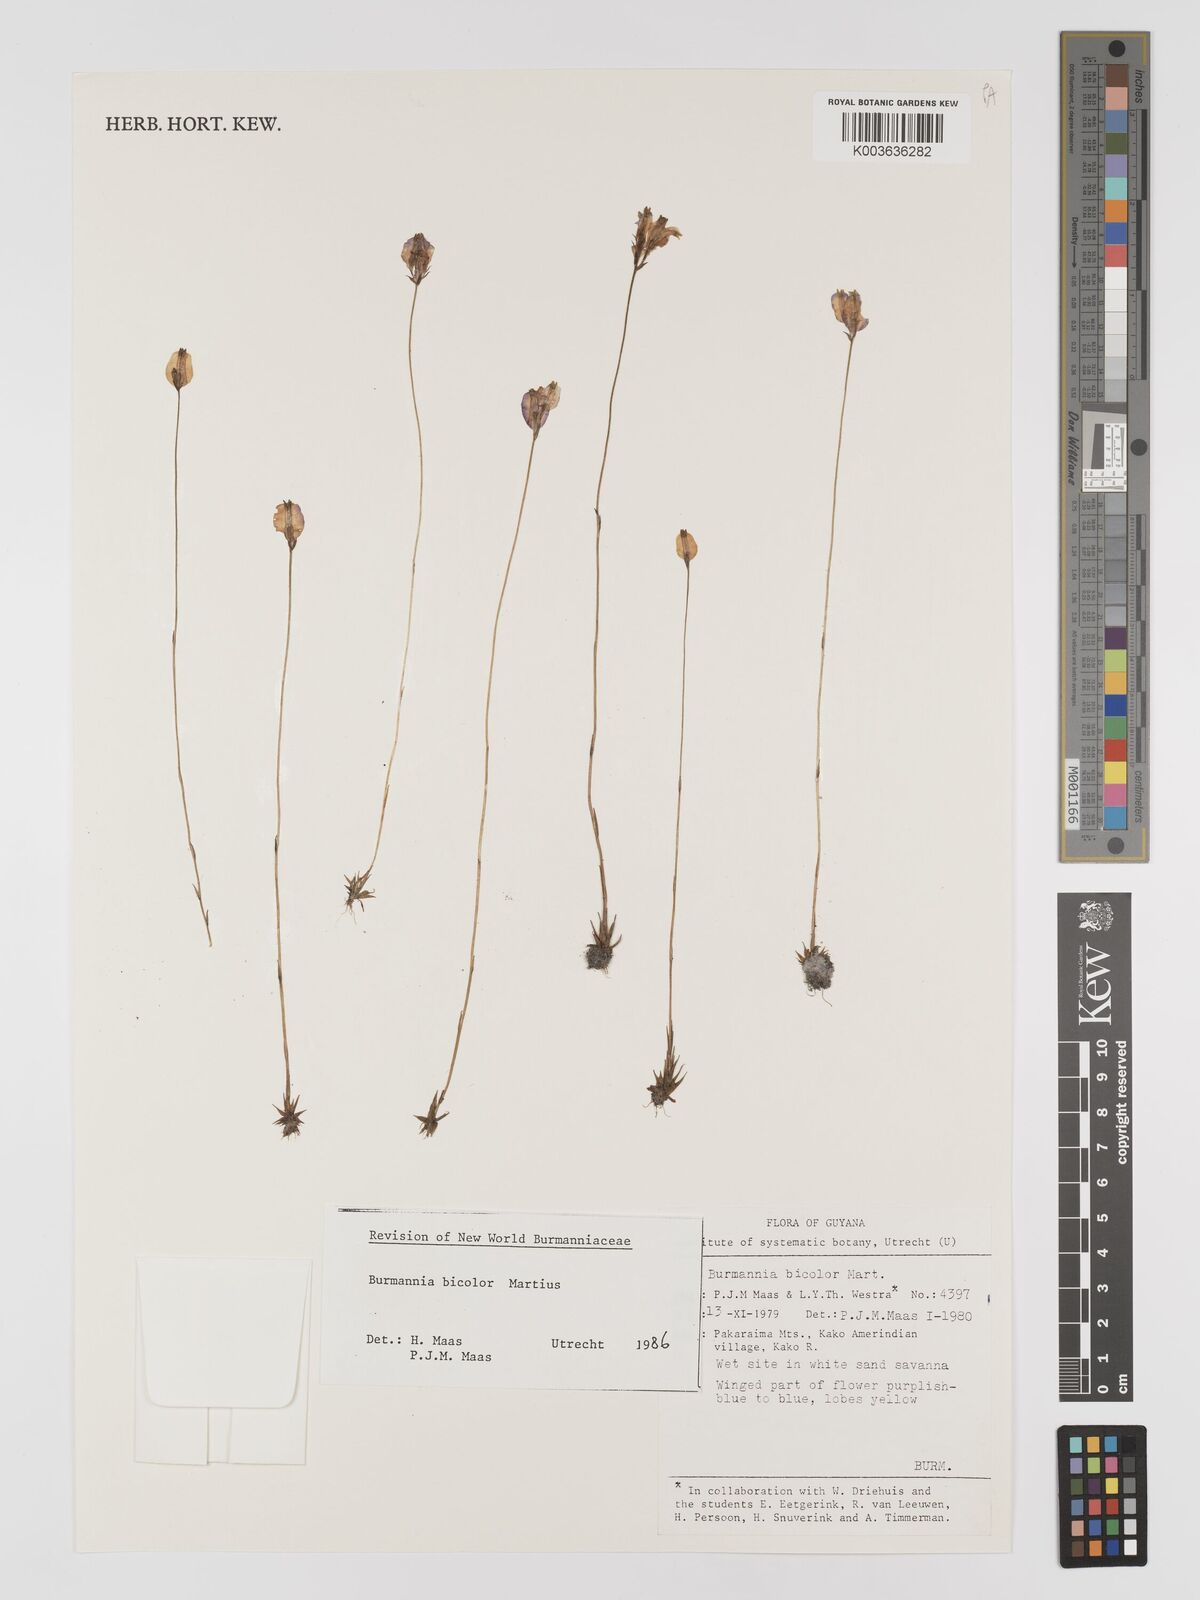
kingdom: Plantae
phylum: Tracheophyta
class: Liliopsida
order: Dioscoreales
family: Burmanniaceae
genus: Burmannia
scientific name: Burmannia bicolor
